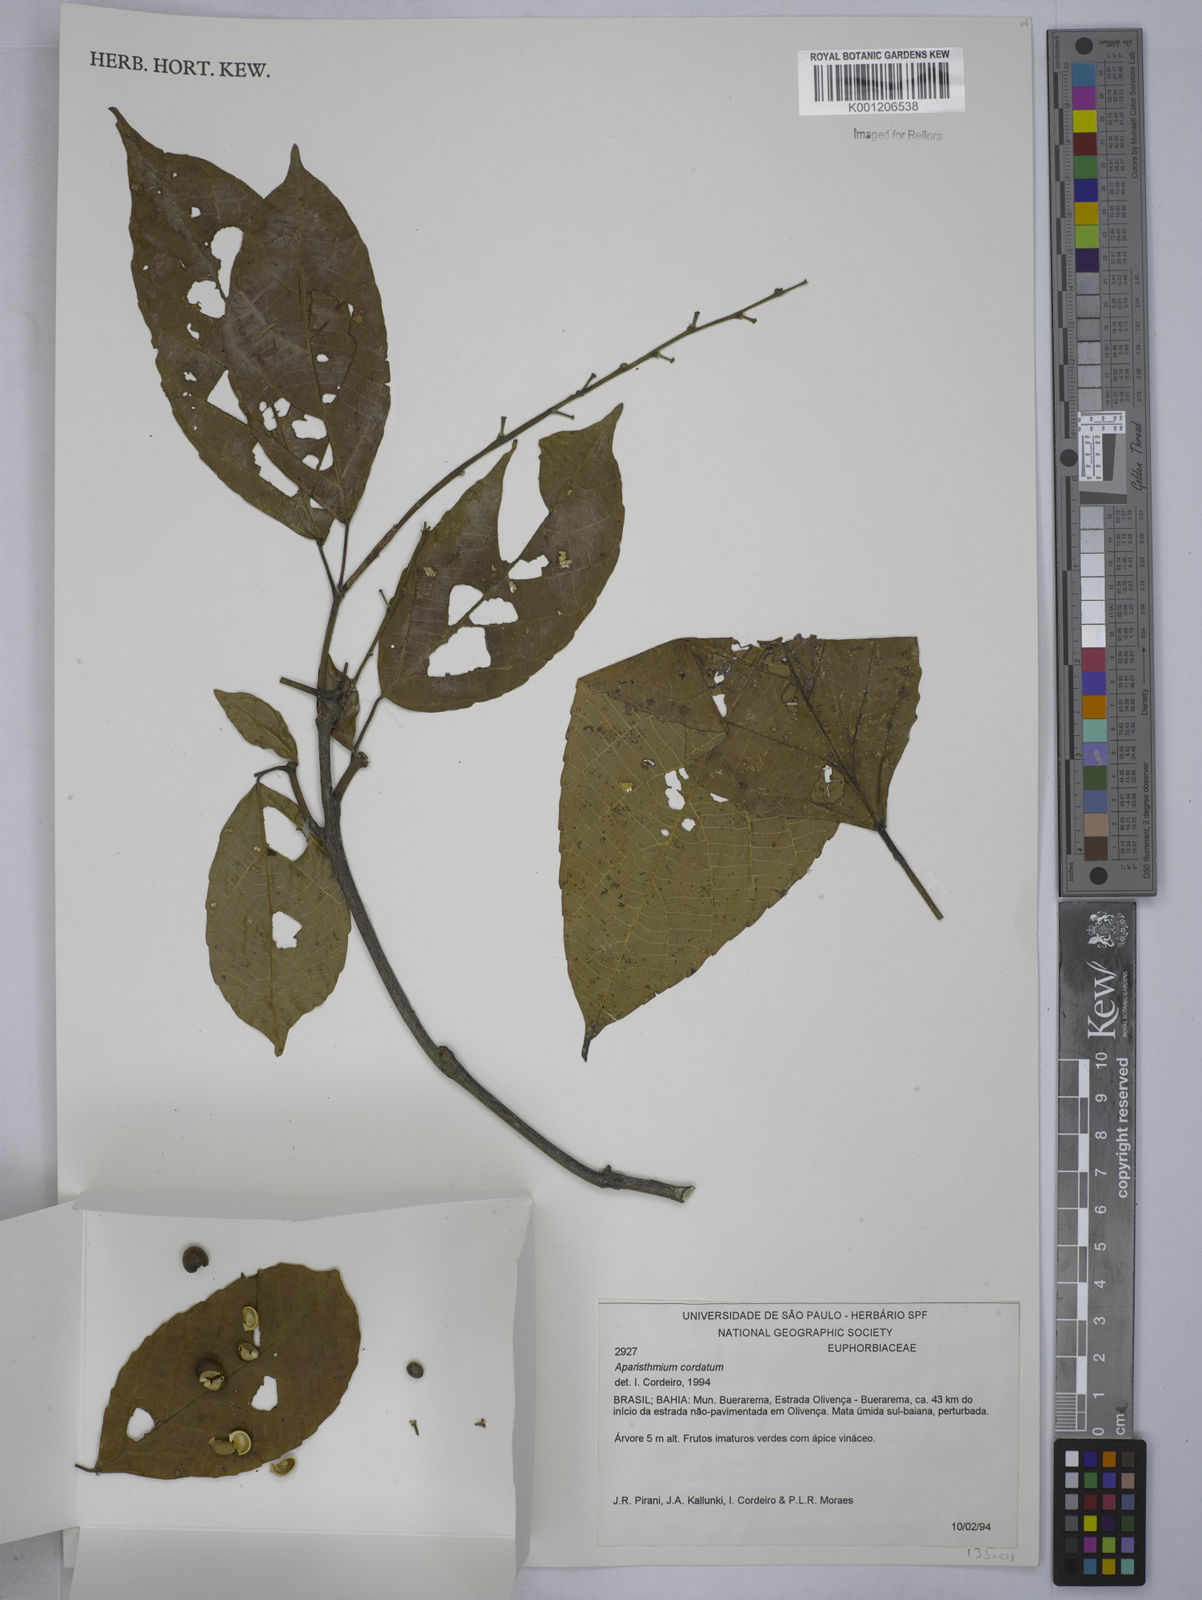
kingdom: Plantae
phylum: Tracheophyta
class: Magnoliopsida
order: Malpighiales
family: Euphorbiaceae
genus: Aparisthmium
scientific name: Aparisthmium cordatum
